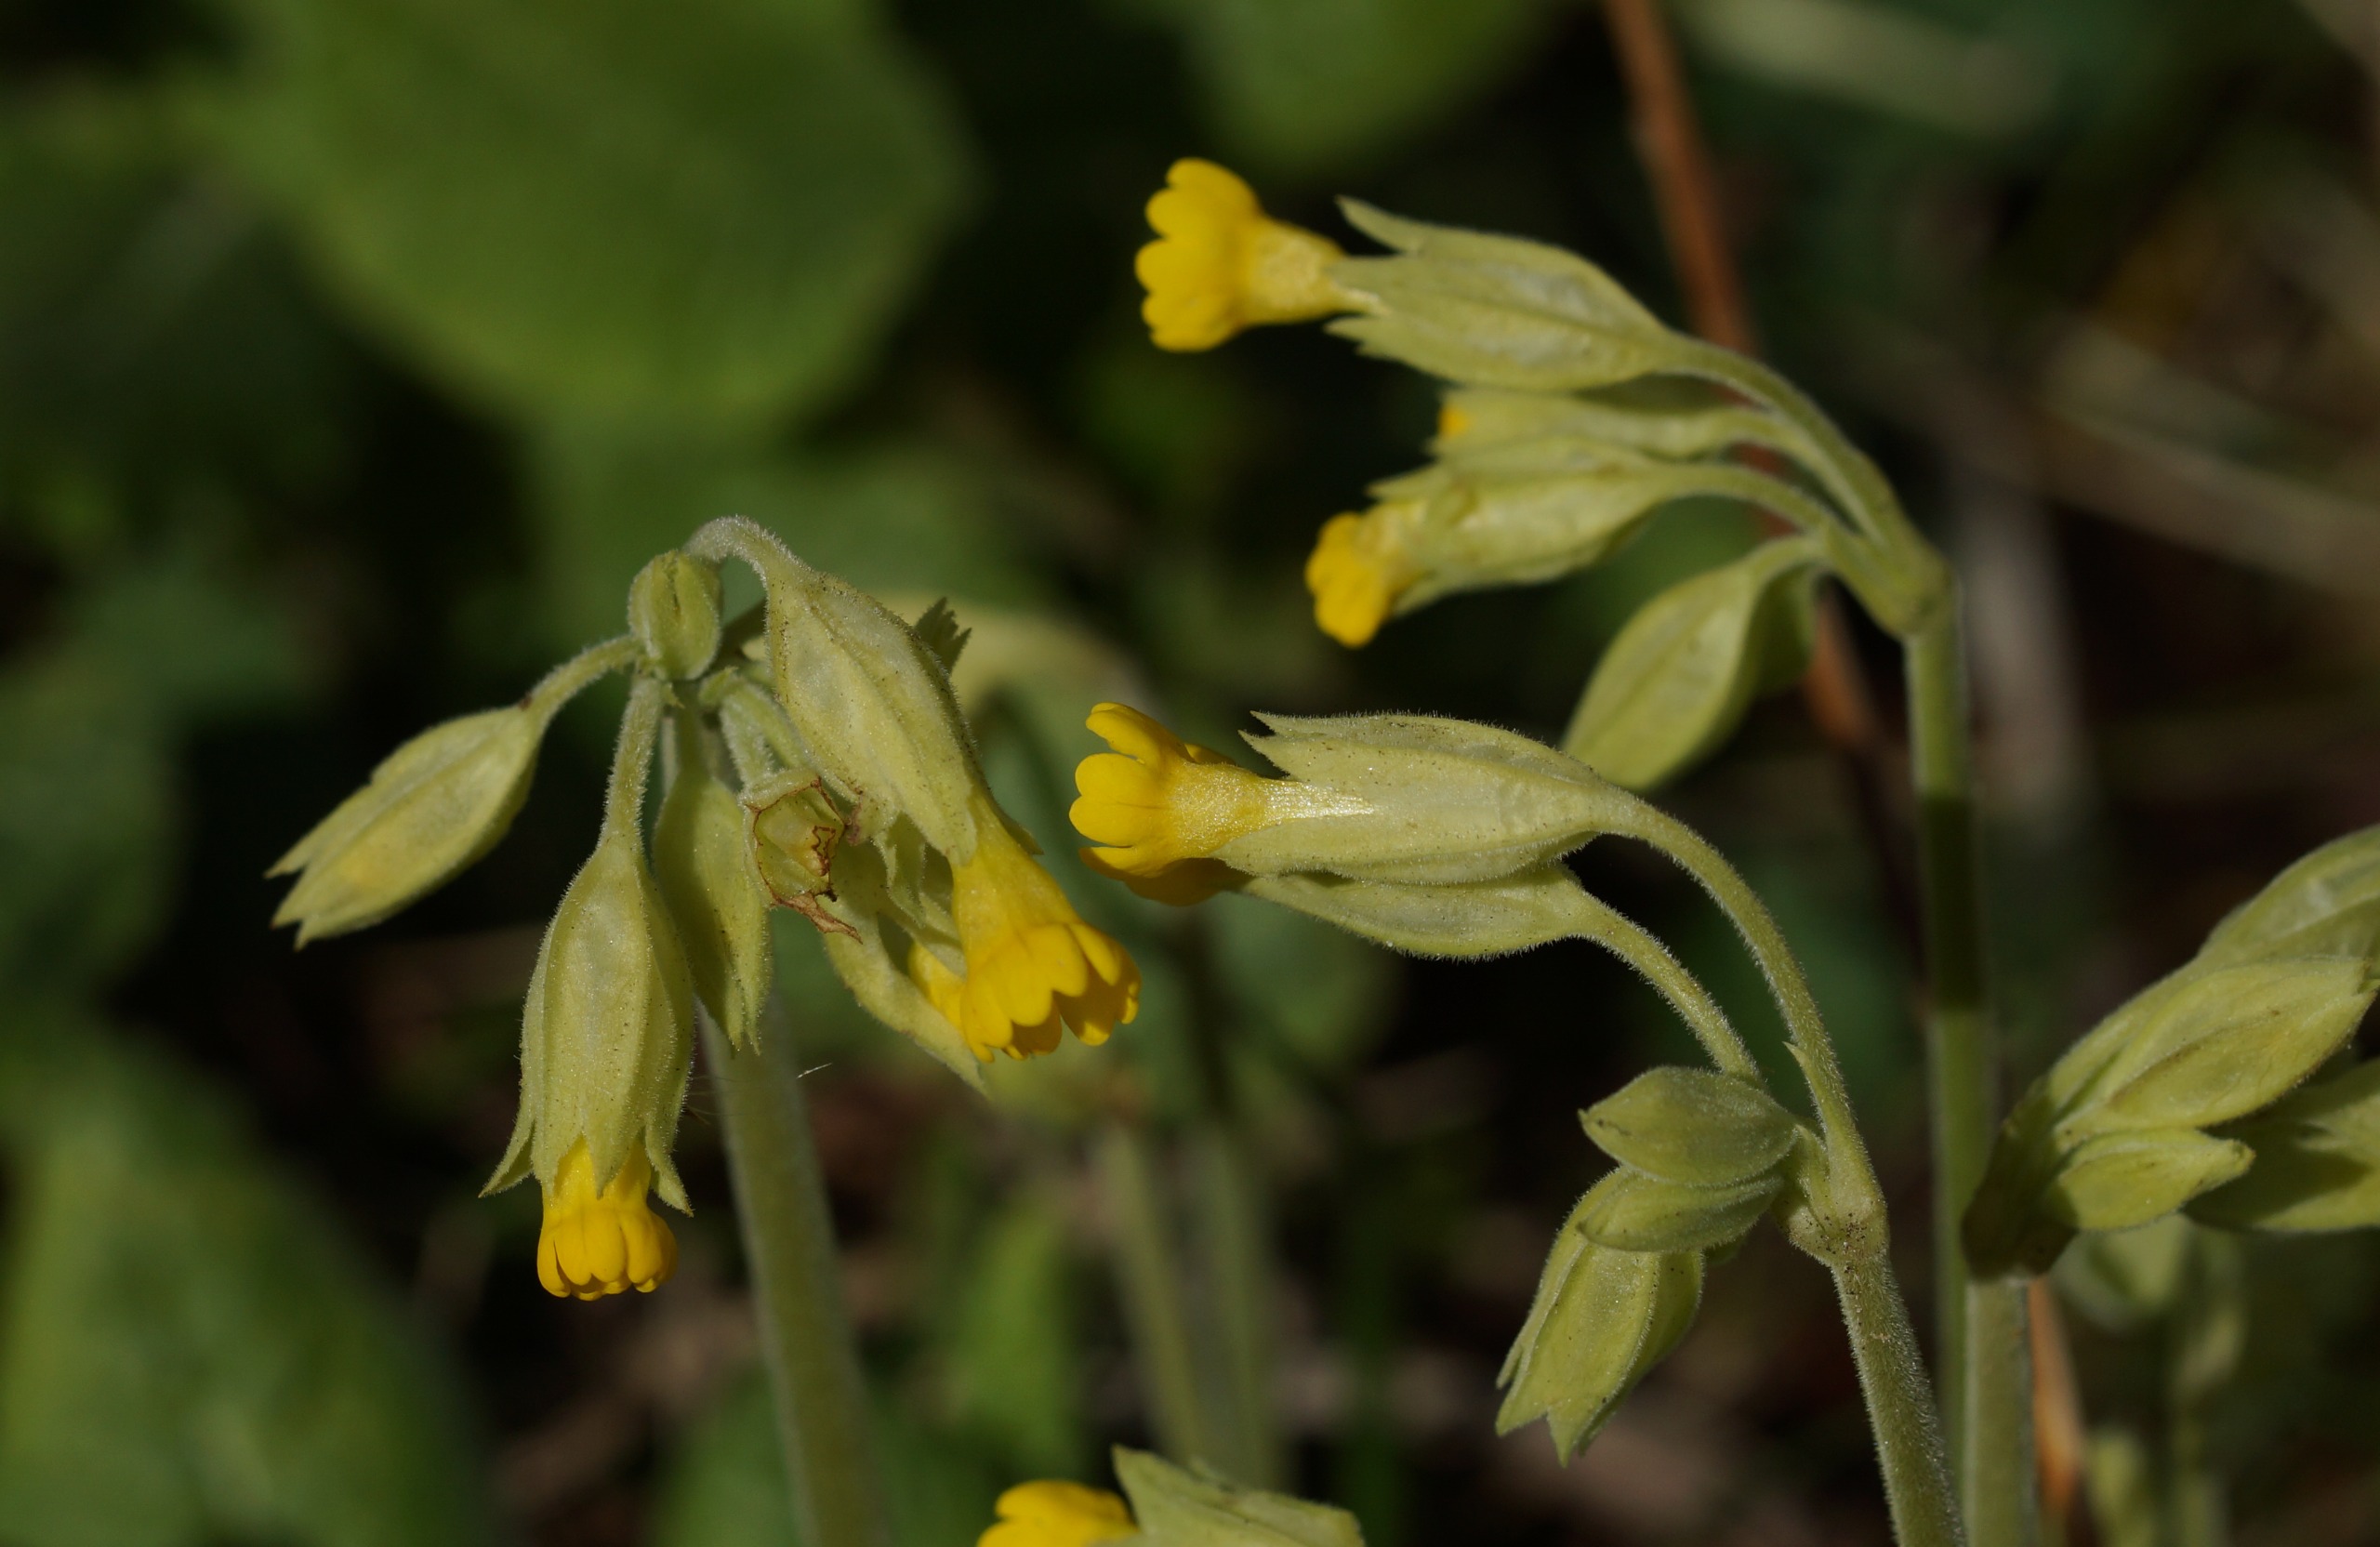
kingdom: Plantae
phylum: Tracheophyta
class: Magnoliopsida
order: Ericales
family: Primulaceae
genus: Primula
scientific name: Primula veris
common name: Hulkravet kodriver
